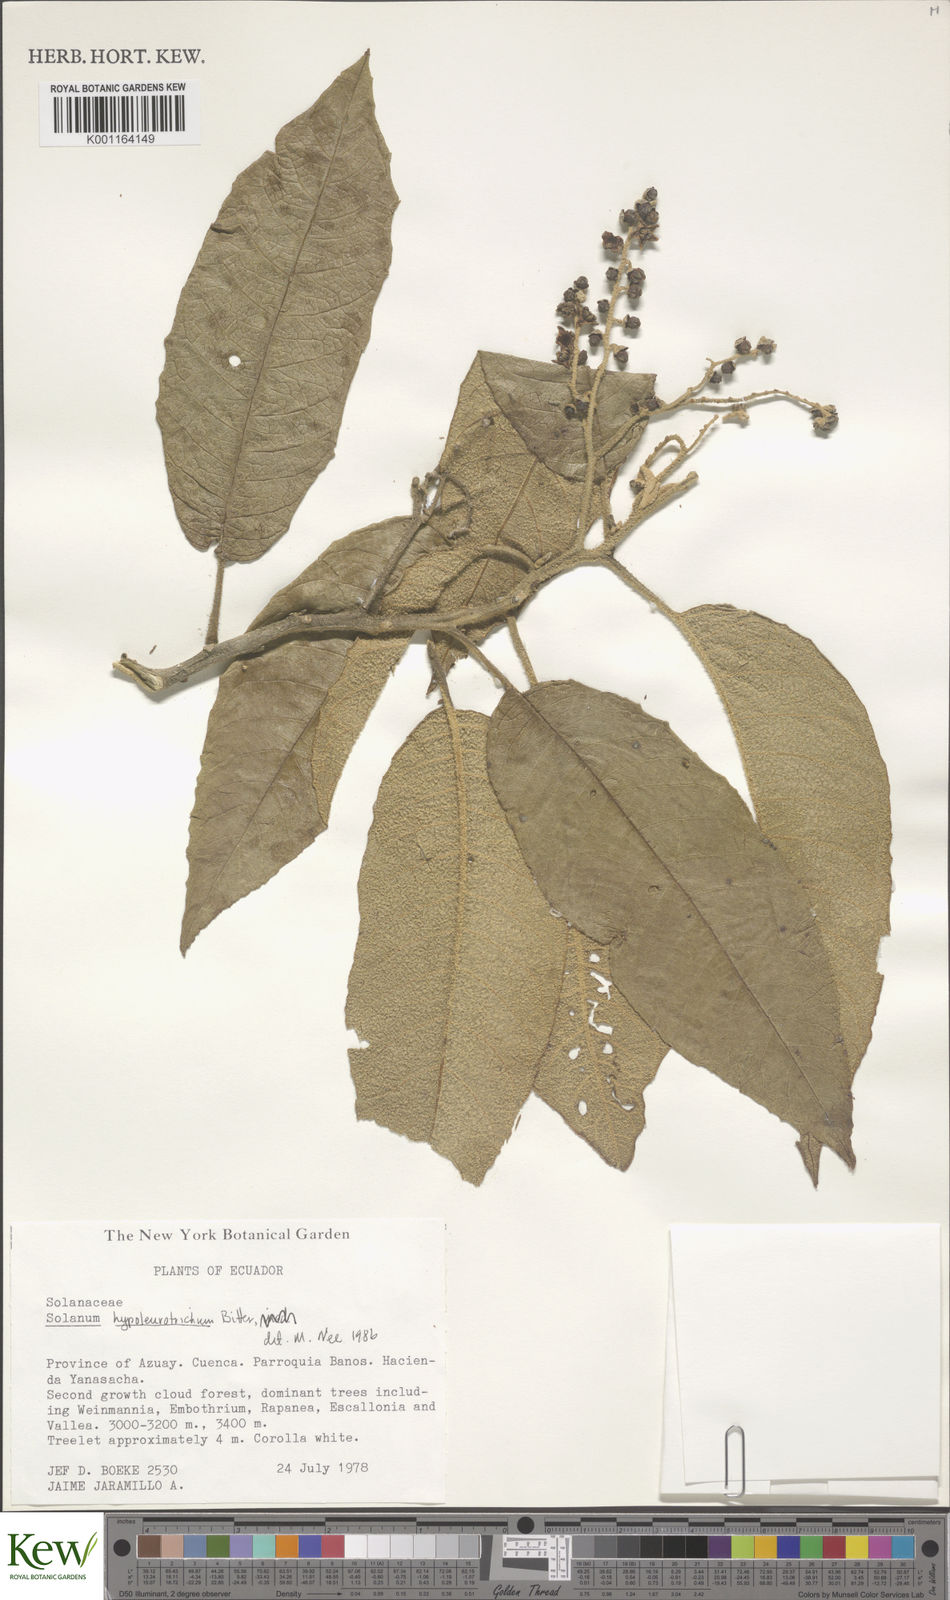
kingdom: Plantae
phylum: Tracheophyta
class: Magnoliopsida
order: Solanales
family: Solanaceae
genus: Solanum
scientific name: Solanum hypaleurotrichum
